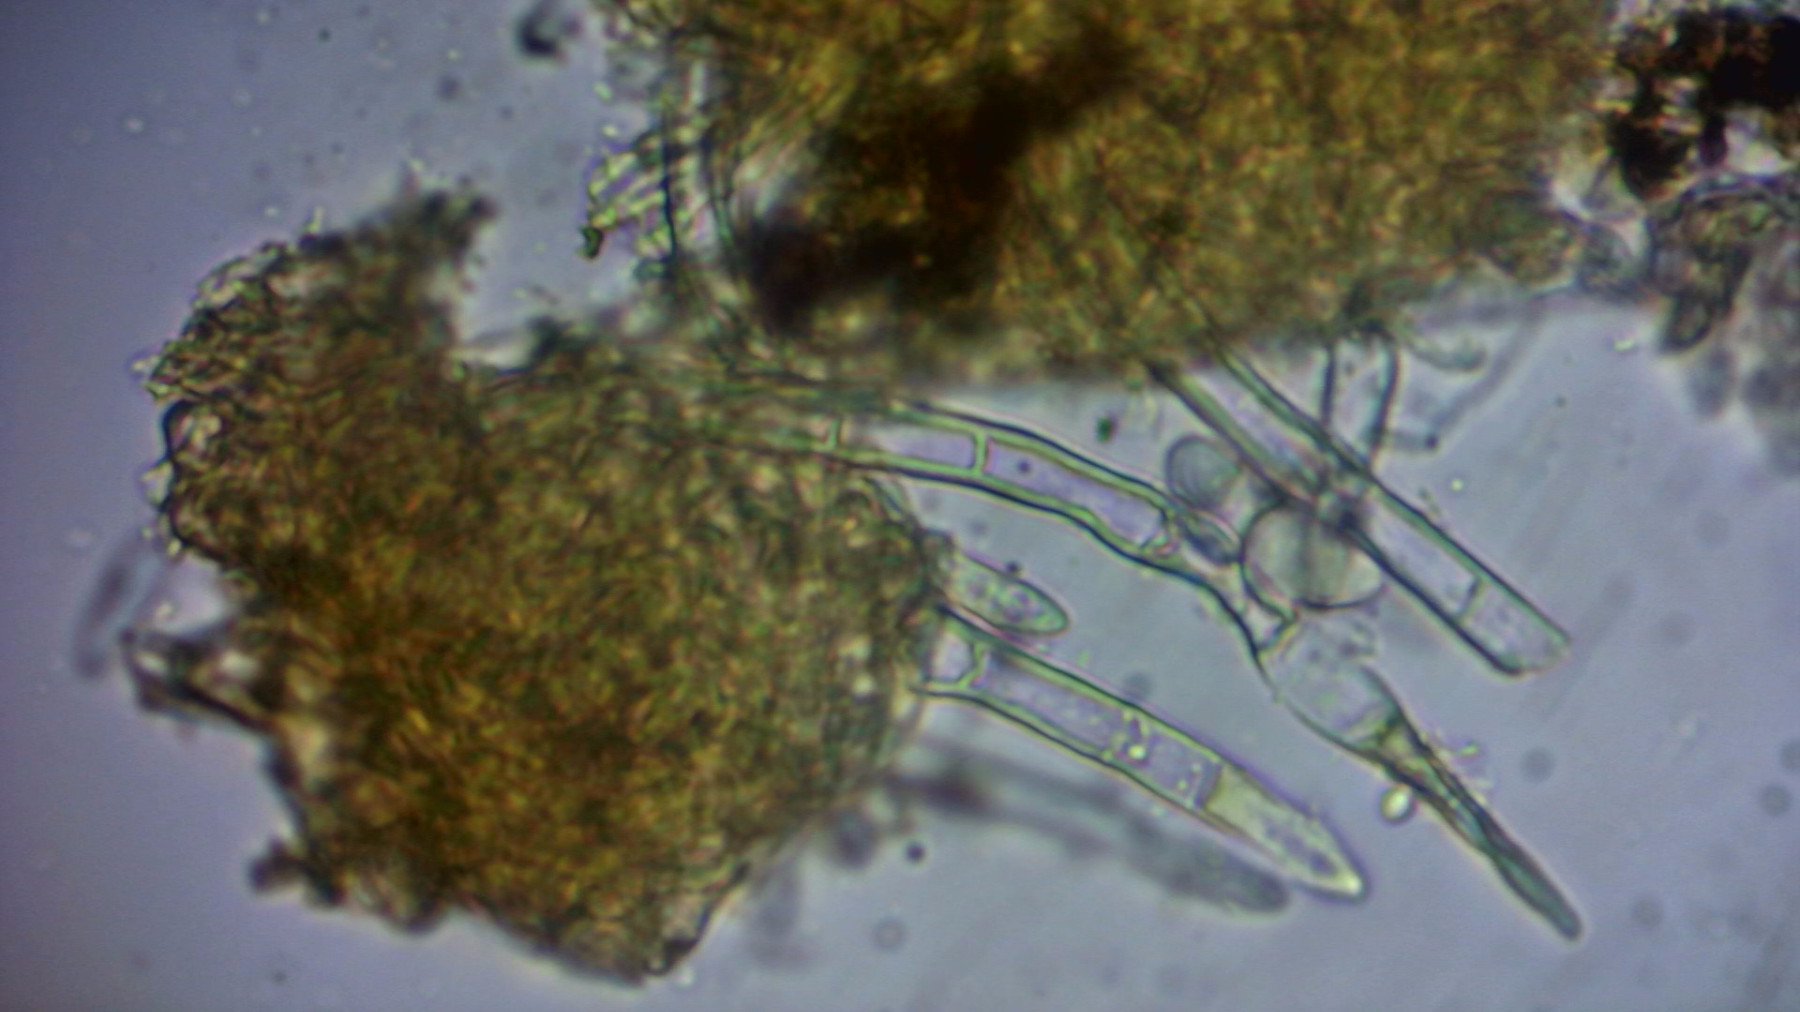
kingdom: Fungi
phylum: Ascomycota
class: Sordariomycetes
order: Hypocreales
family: Nectriaceae
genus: Pseudonectria
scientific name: Pseudonectria buxi
